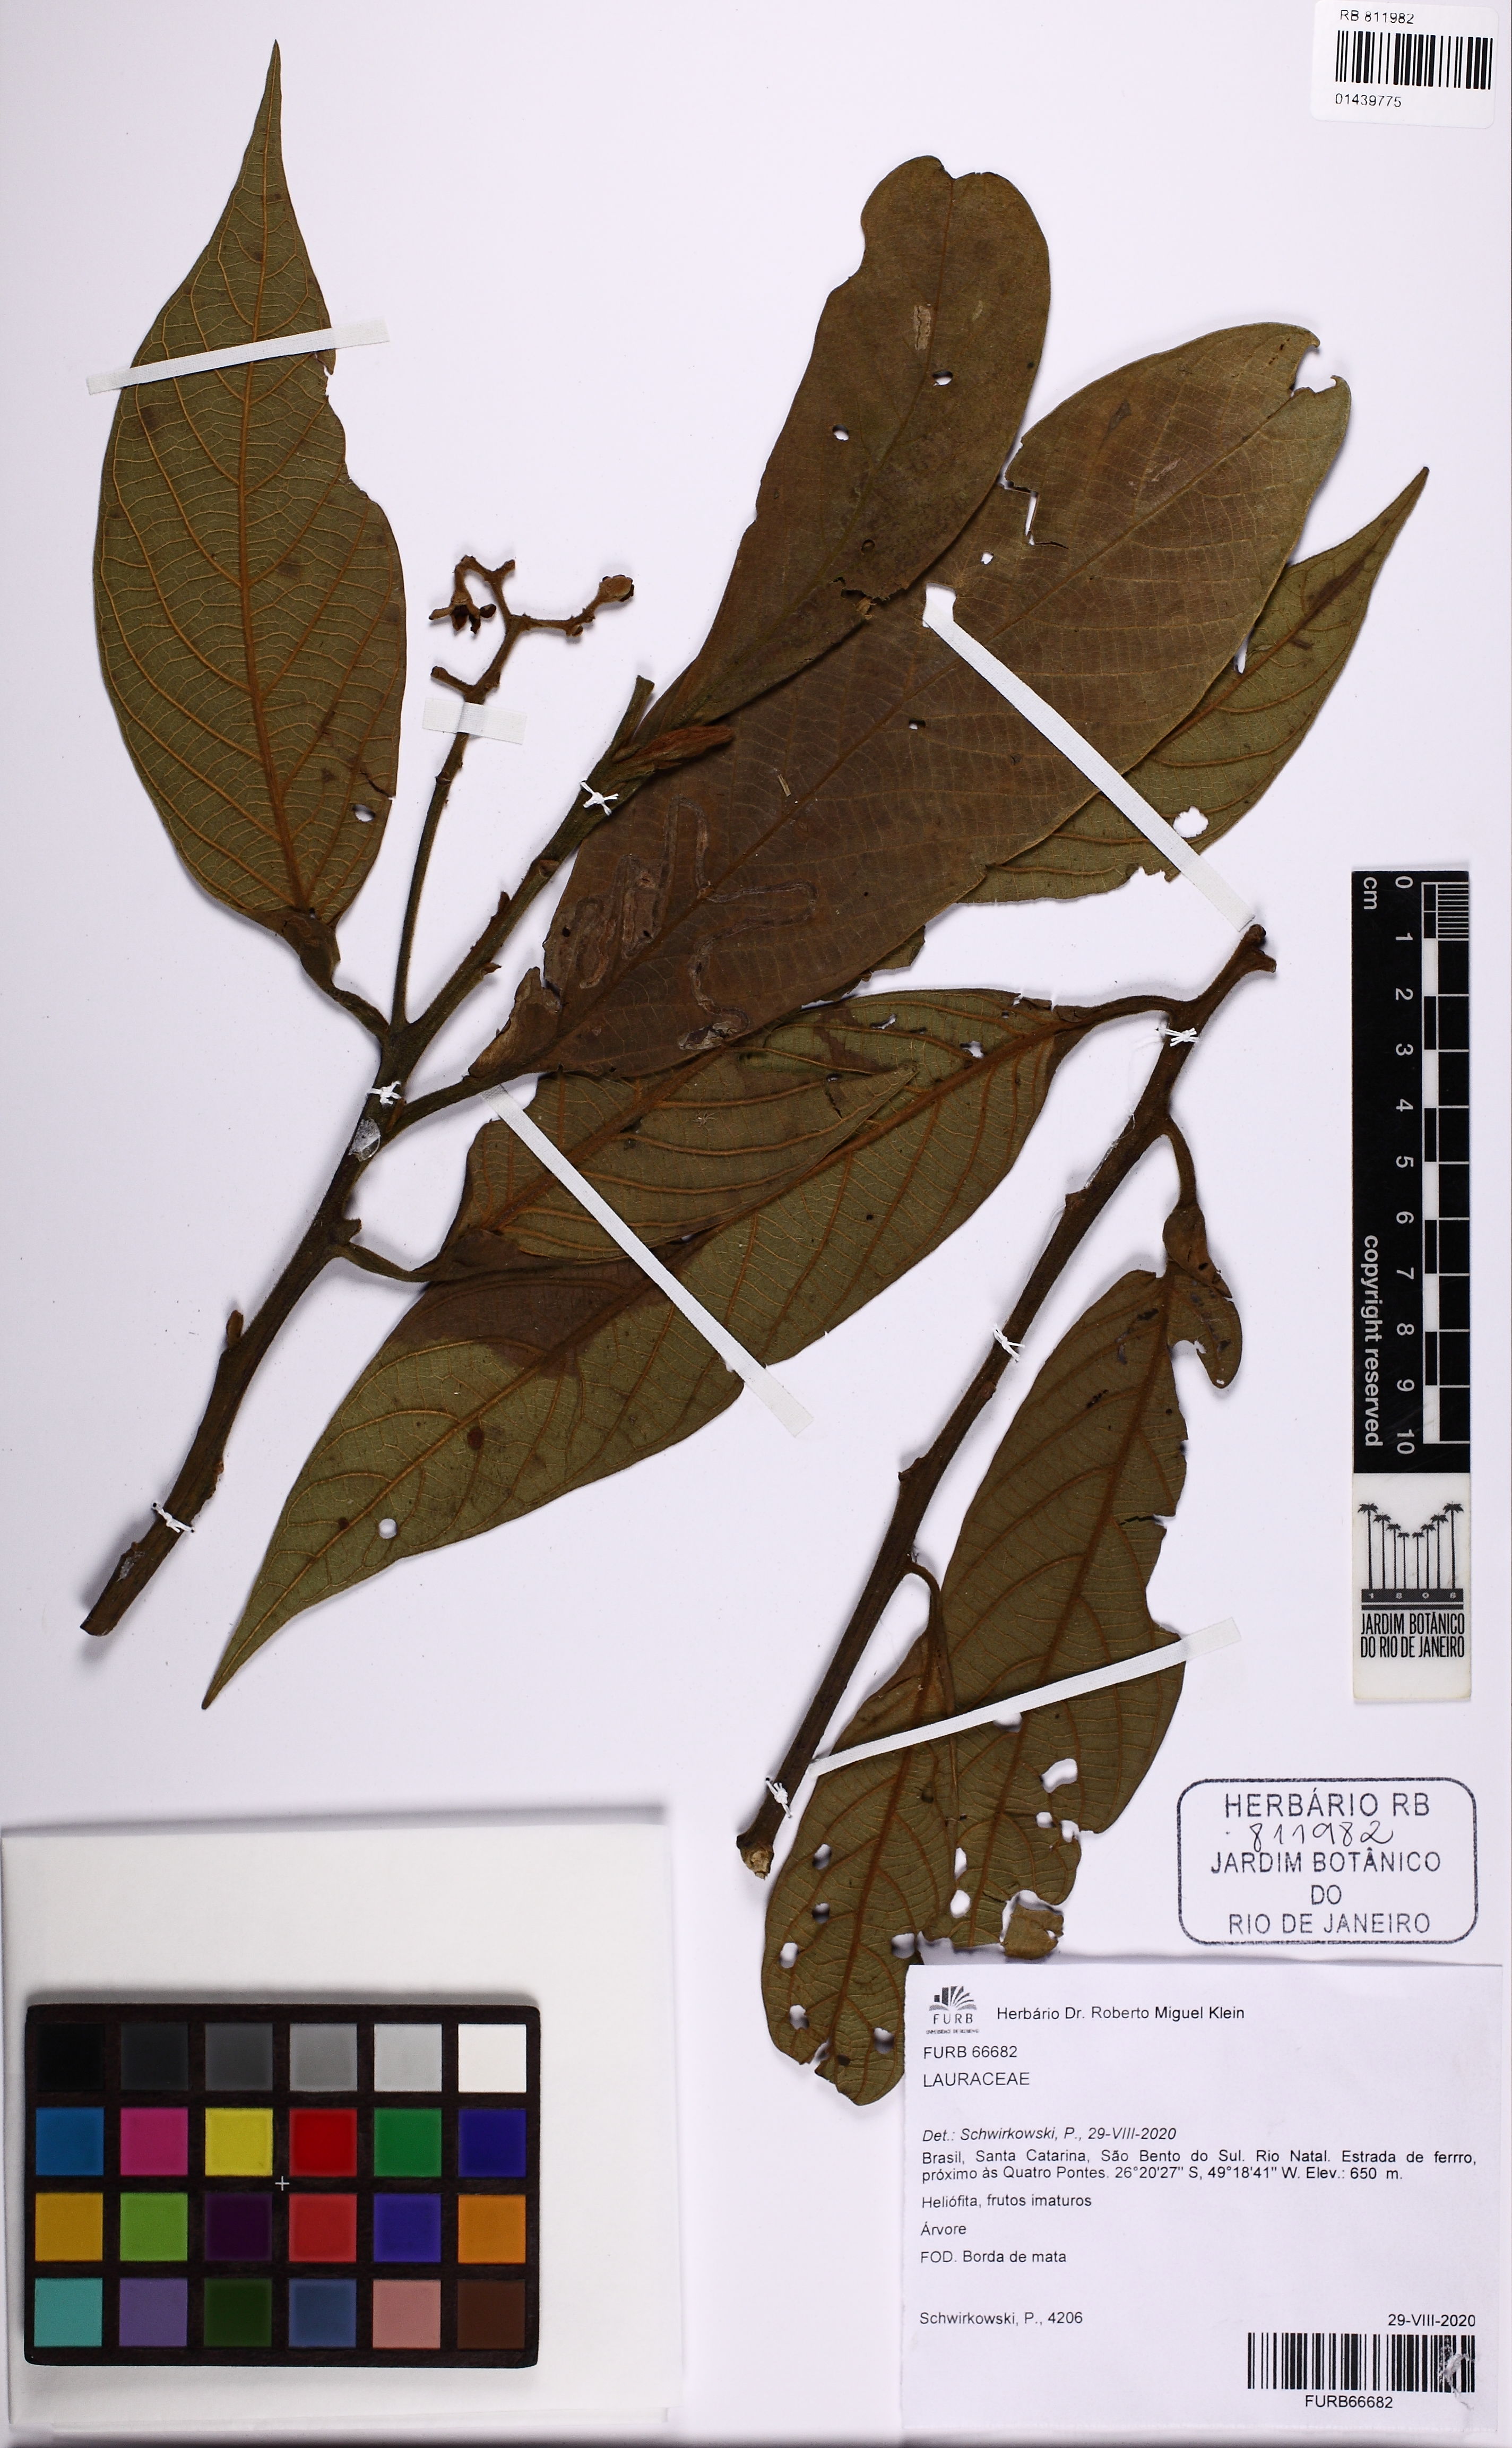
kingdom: Plantae
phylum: Tracheophyta
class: Magnoliopsida
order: Laurales
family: Lauraceae
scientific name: Lauraceae
